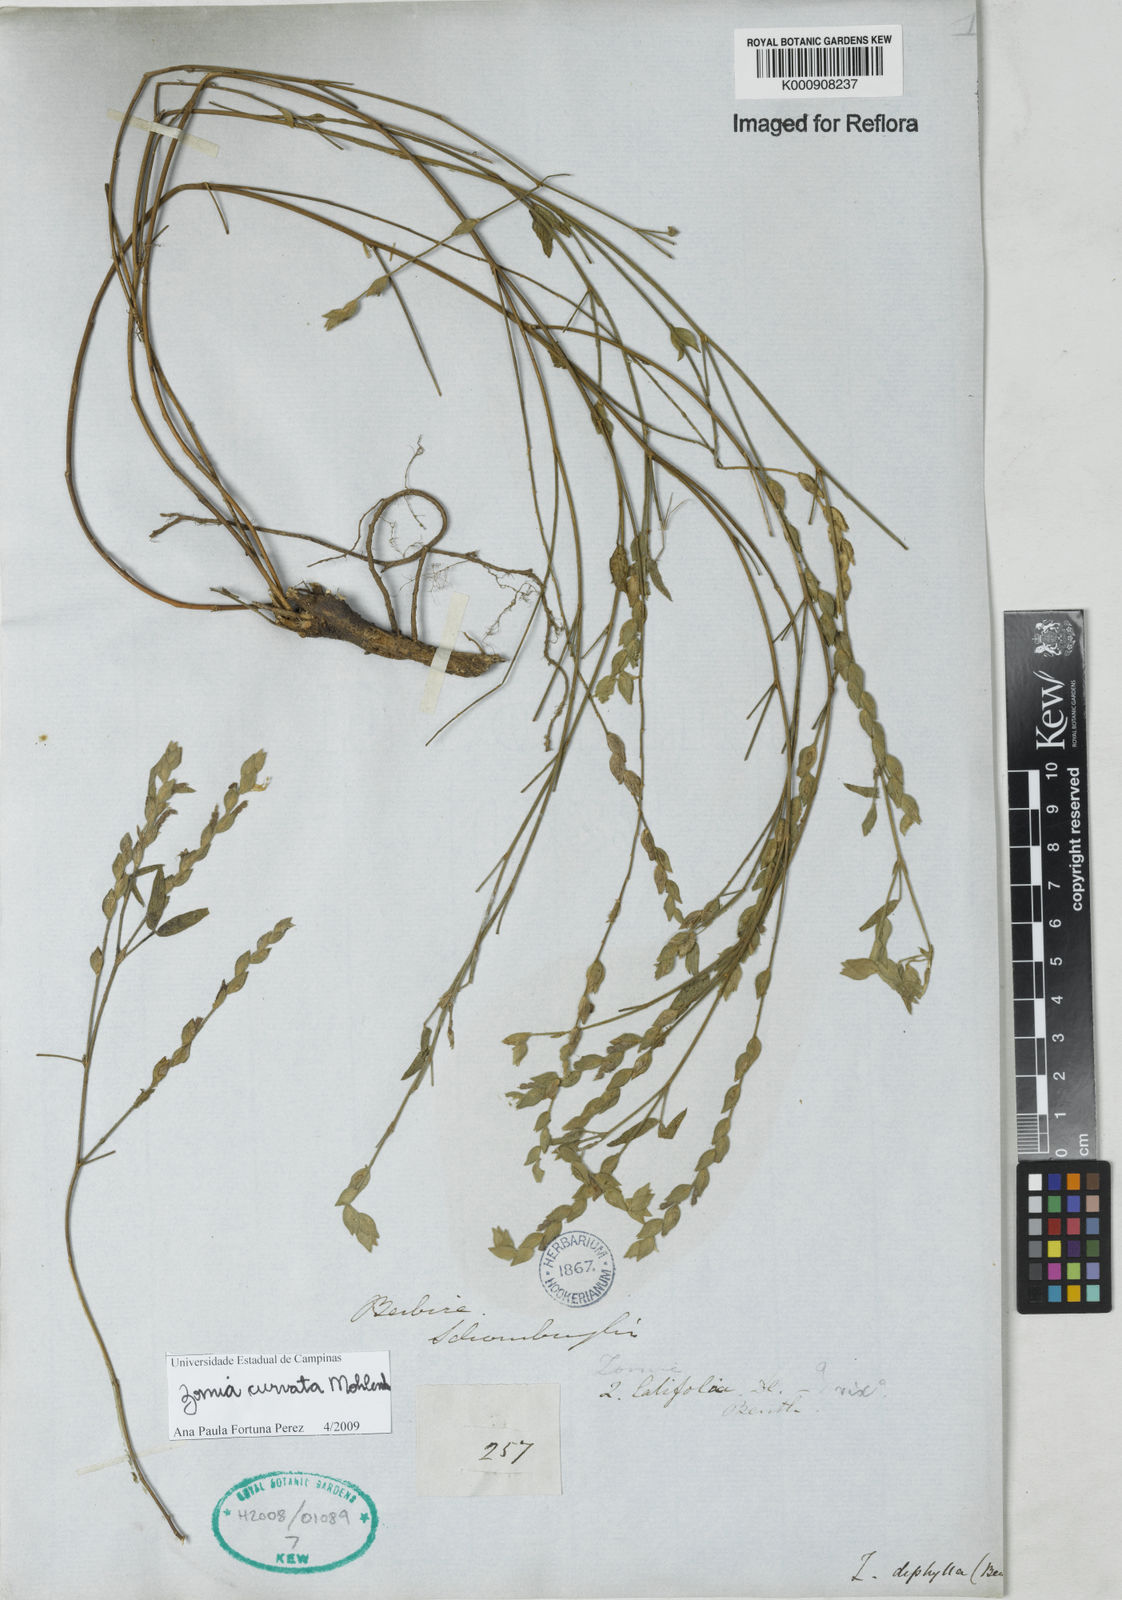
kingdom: Plantae
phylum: Tracheophyta
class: Magnoliopsida
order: Fabales
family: Fabaceae
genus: Zornia
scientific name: Zornia curvata
